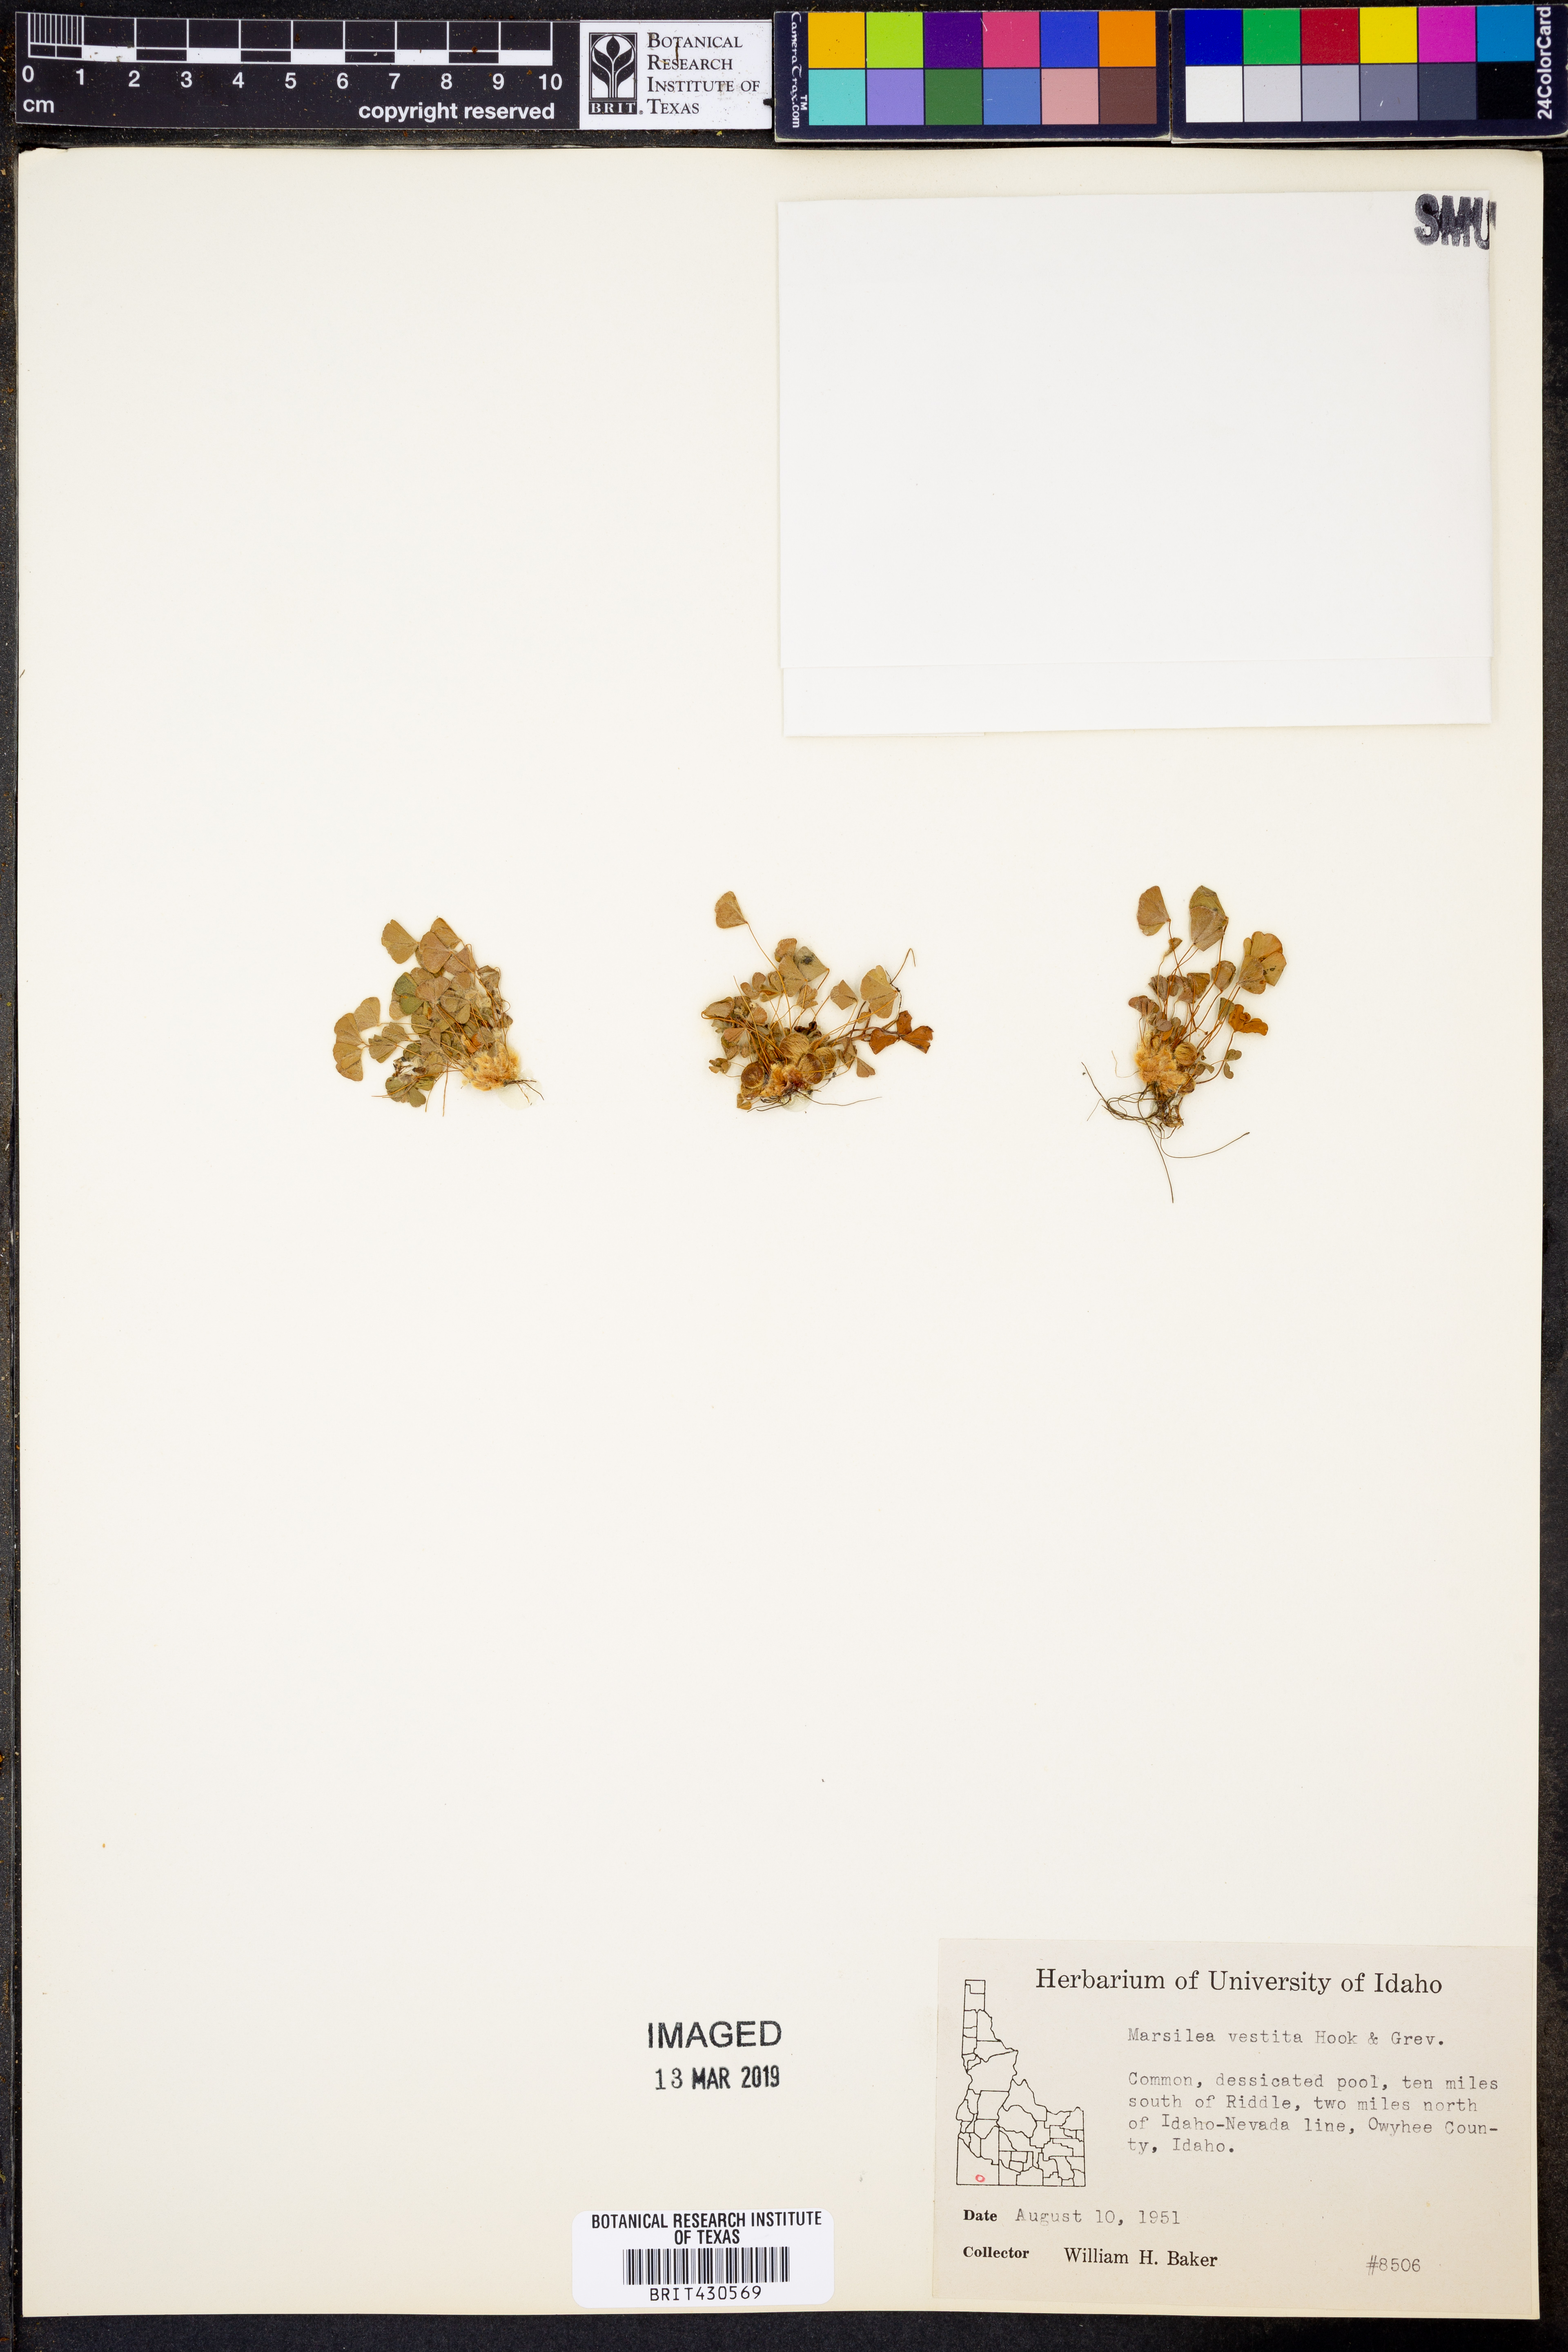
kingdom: Plantae
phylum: Tracheophyta
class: Polypodiopsida
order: Salviniales
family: Marsileaceae
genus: Marsilea
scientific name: Marsilea vestita
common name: Hooked-pepperwort
